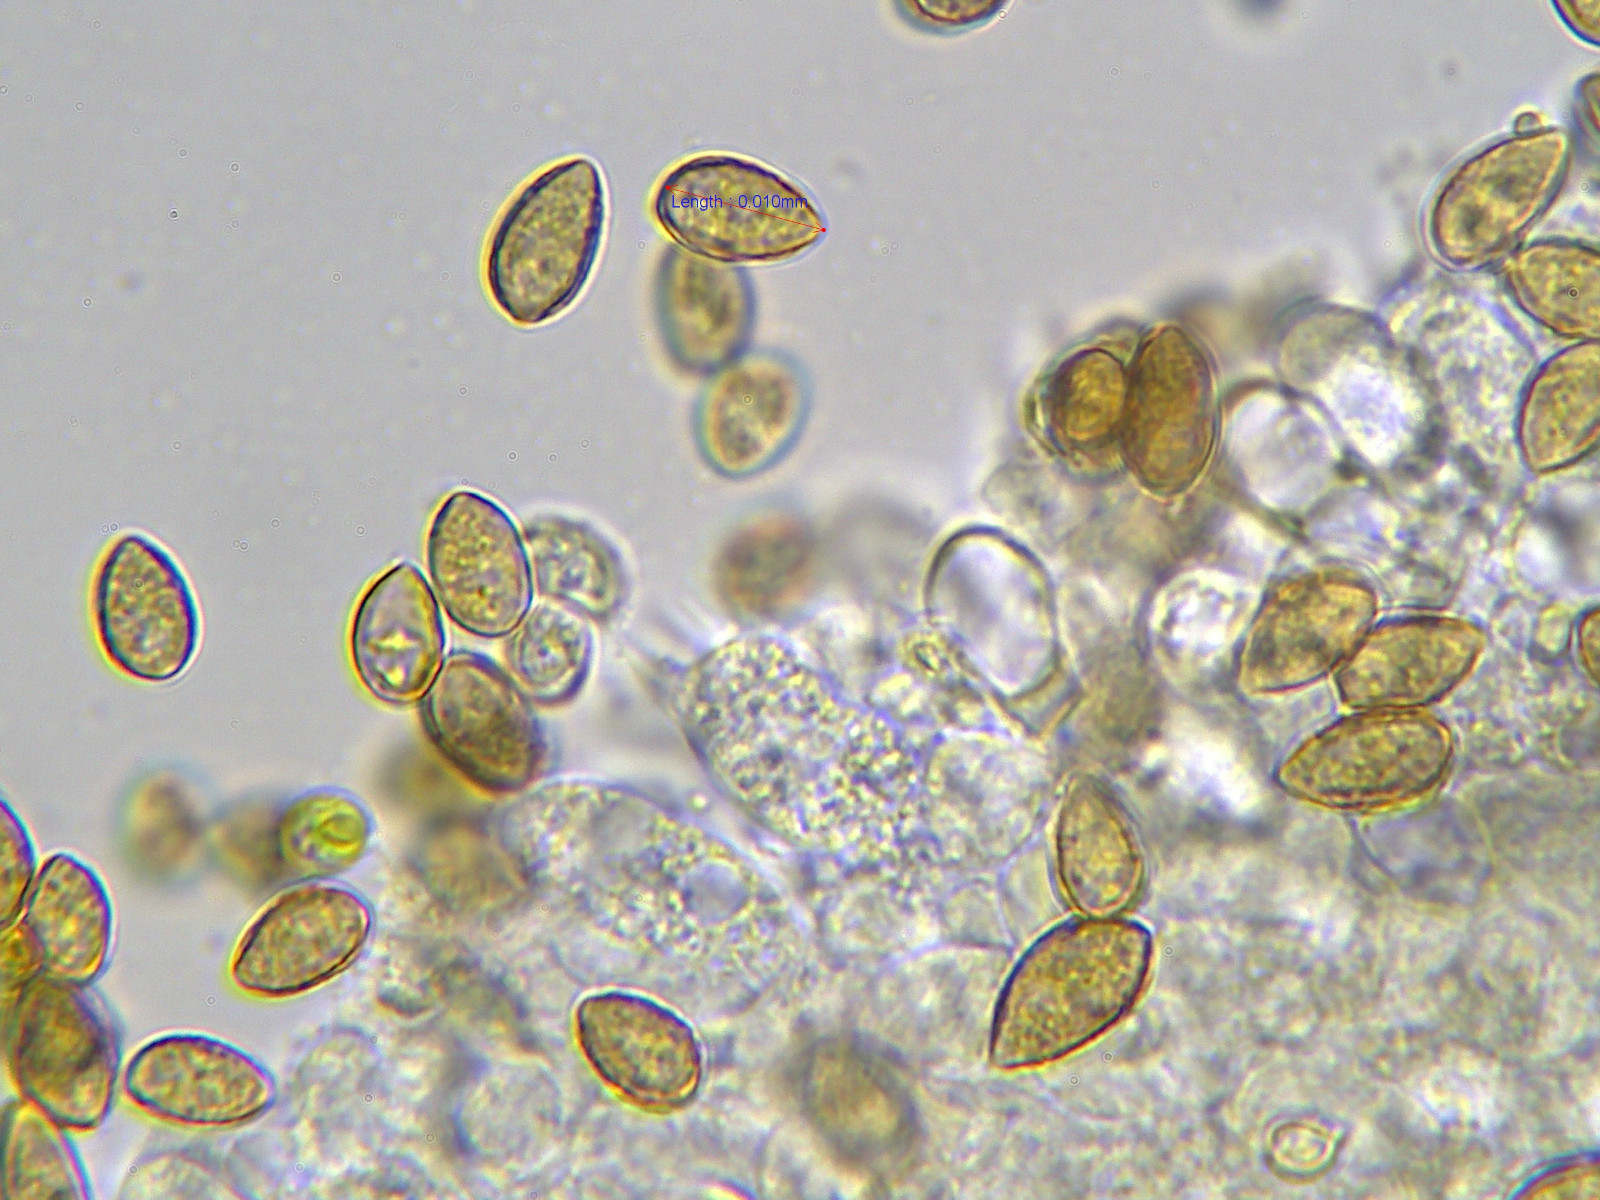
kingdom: Fungi
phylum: Basidiomycota
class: Agaricomycetes
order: Agaricales
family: Hymenogastraceae
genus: Galerina
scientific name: Galerina marginata
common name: randbæltet hjelmhat
